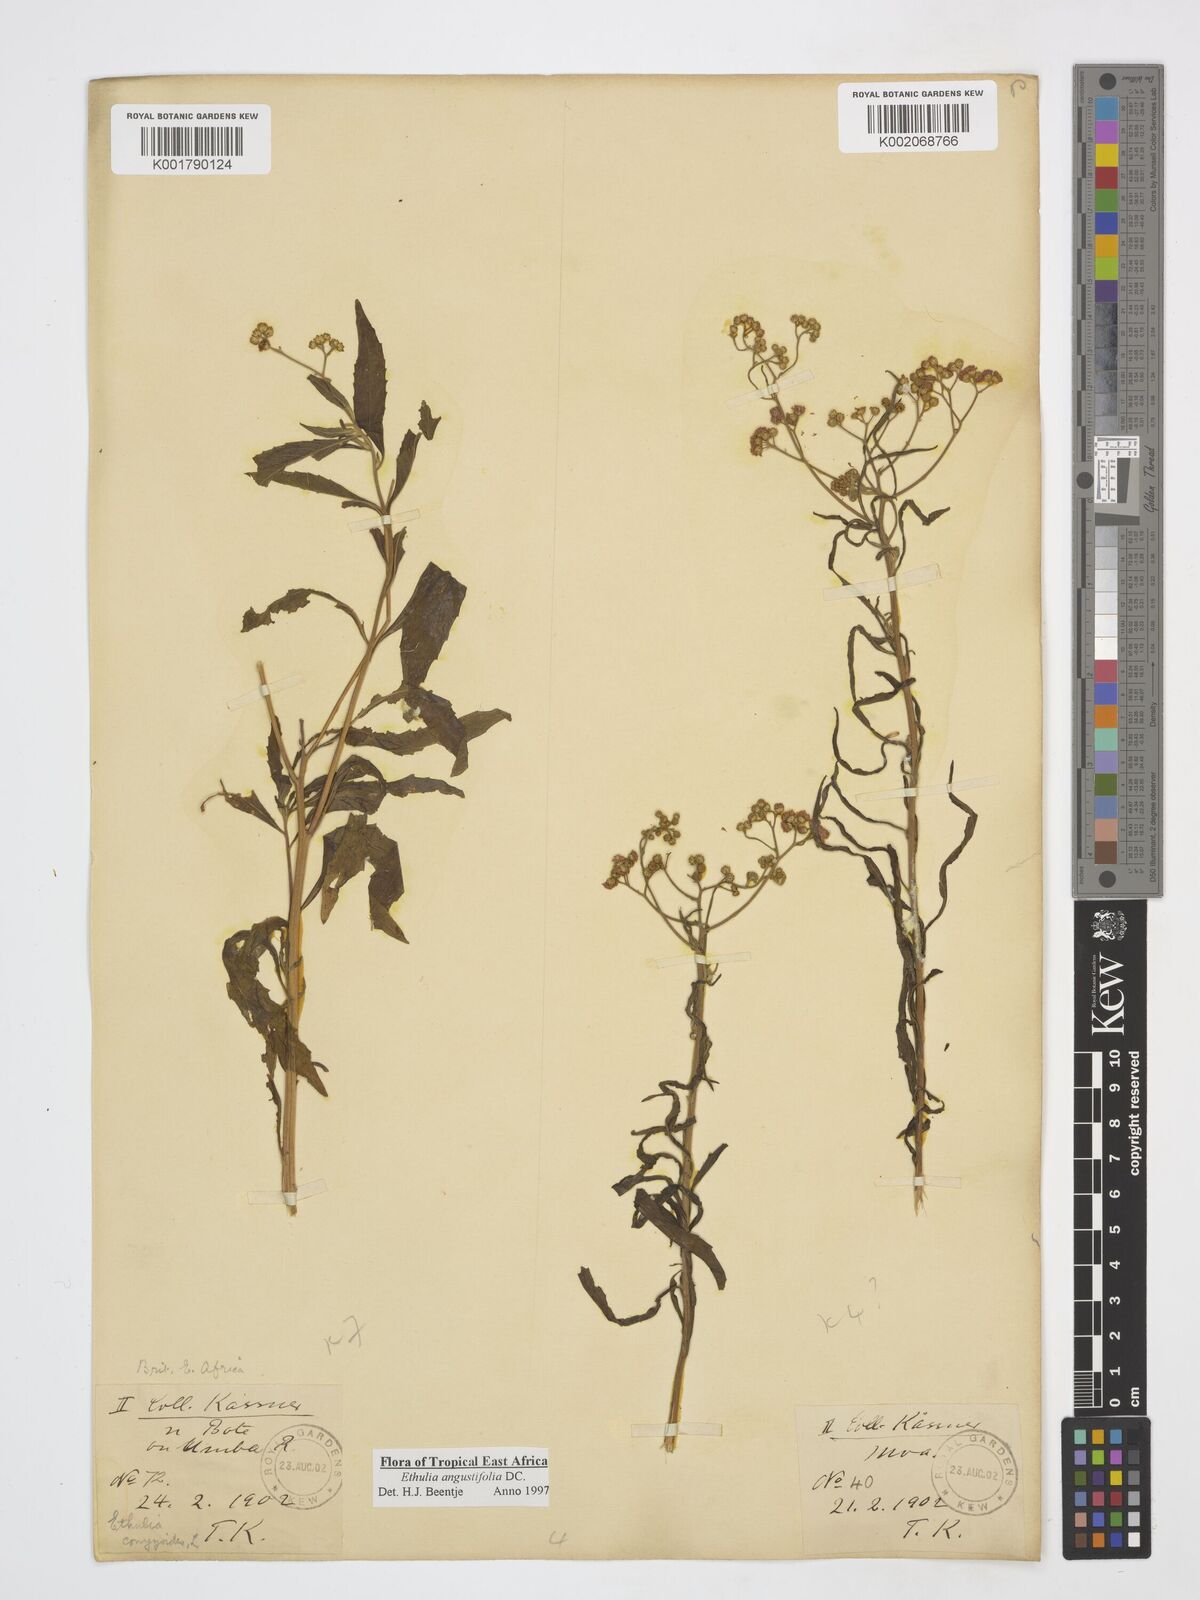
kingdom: Plantae
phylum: Tracheophyta
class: Magnoliopsida
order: Asterales
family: Asteraceae
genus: Ethulia
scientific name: Ethulia conyzoides
